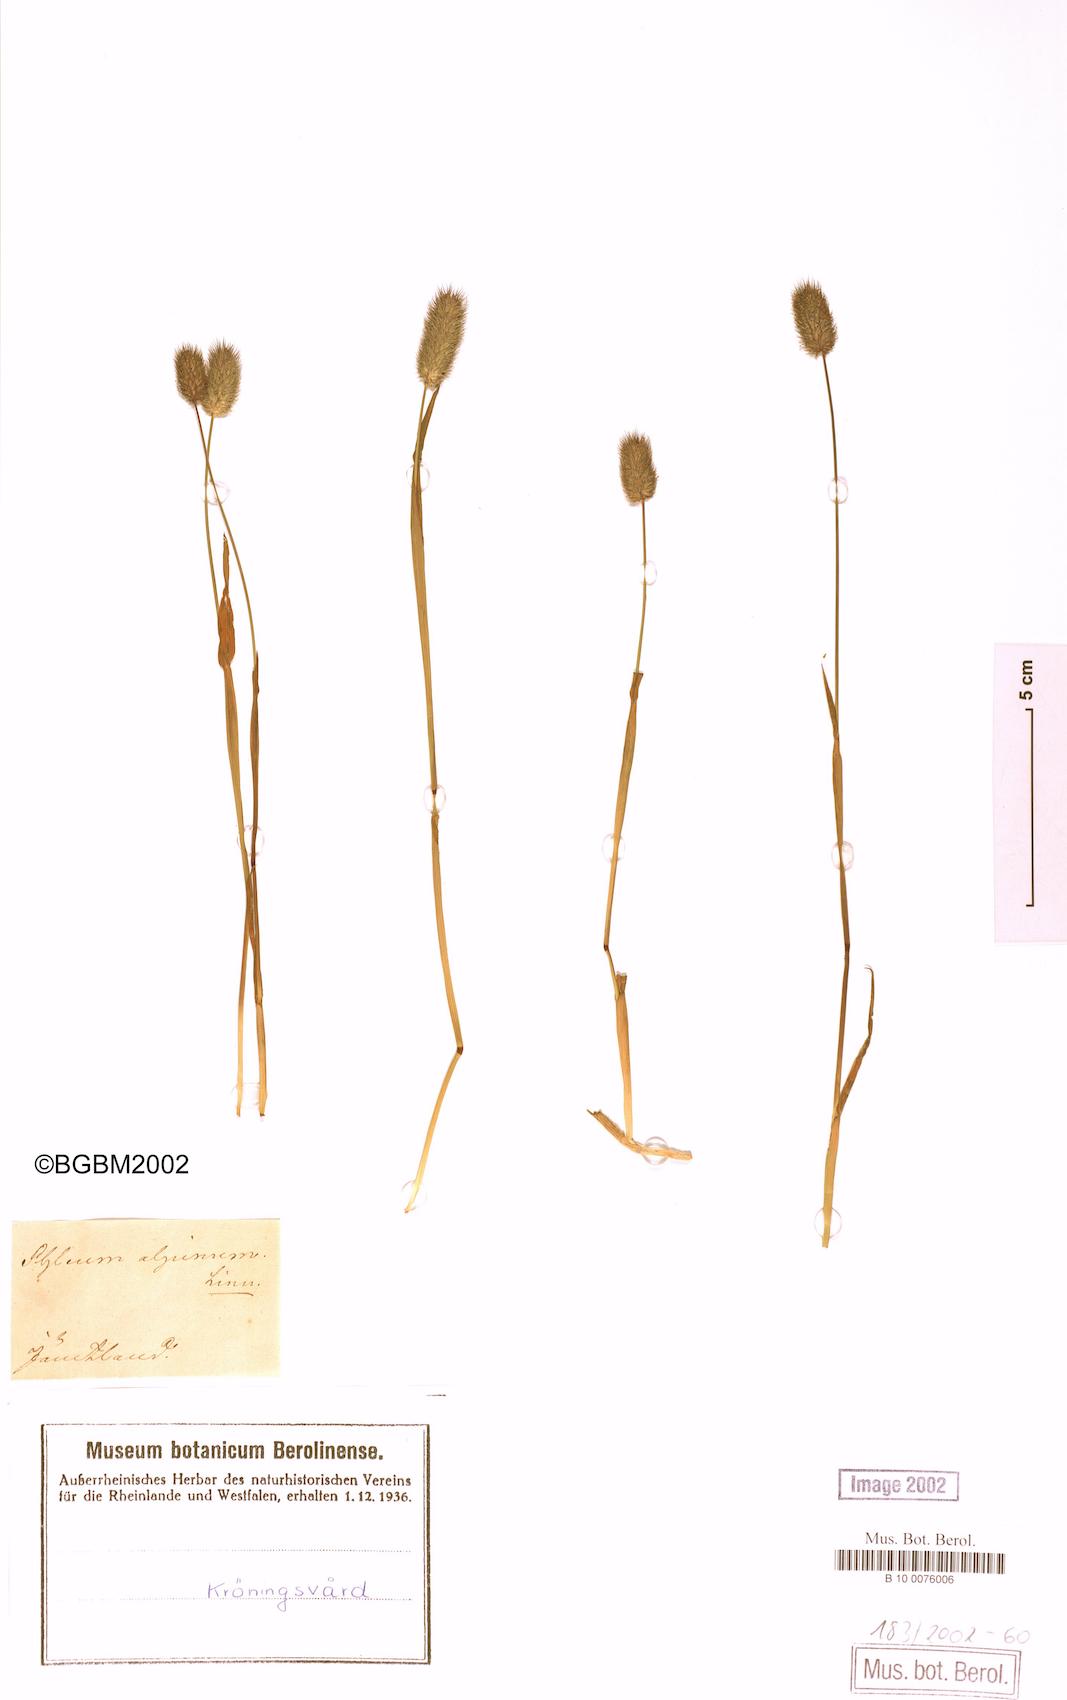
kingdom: Plantae
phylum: Tracheophyta
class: Liliopsida
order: Poales
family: Poaceae
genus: Phleum
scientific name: Phleum alpinum
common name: Alpine cat's-tail
